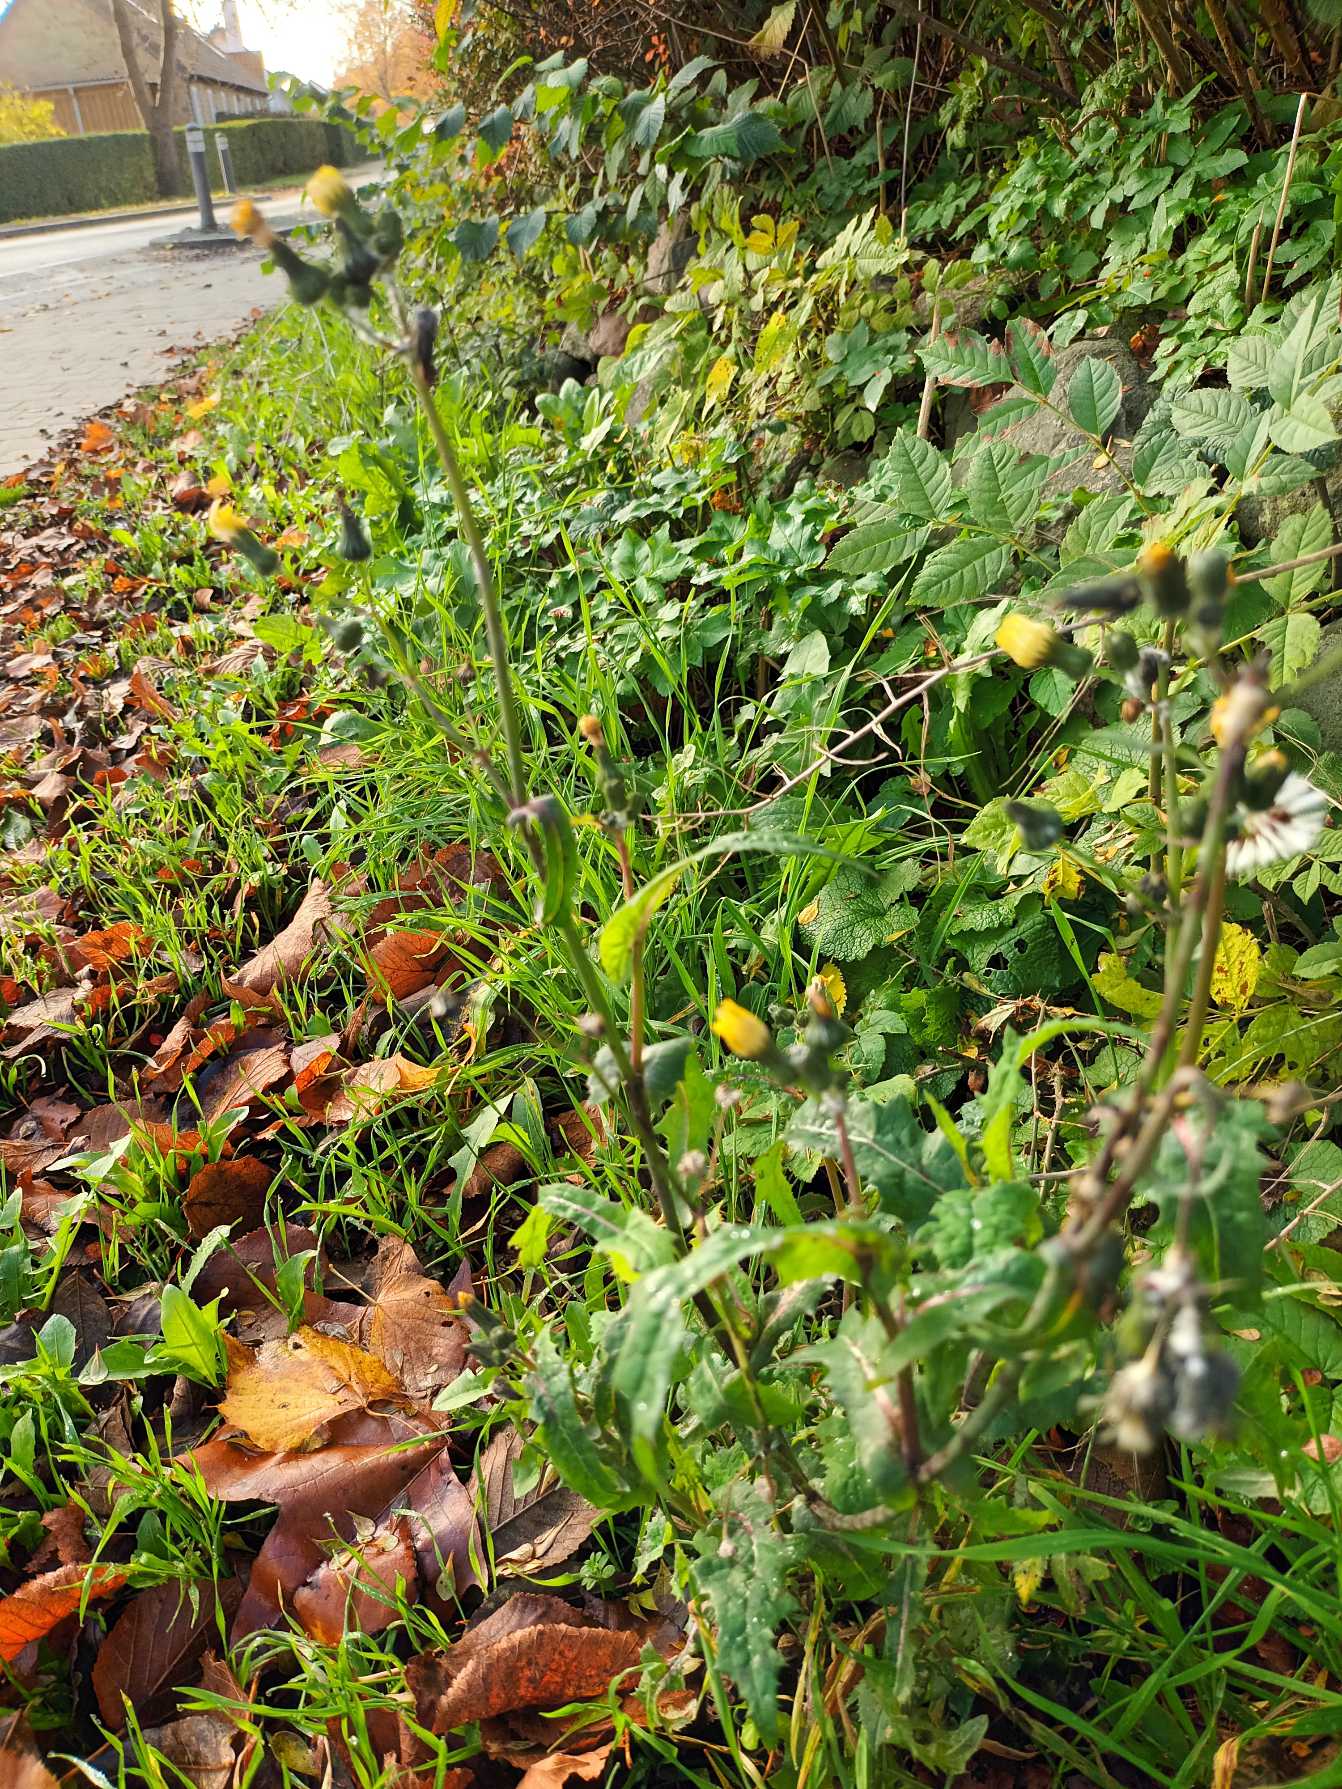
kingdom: Plantae
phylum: Tracheophyta
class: Magnoliopsida
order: Asterales
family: Asteraceae
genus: Sonchus
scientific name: Sonchus oleraceus
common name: Almindelig svinemælk
